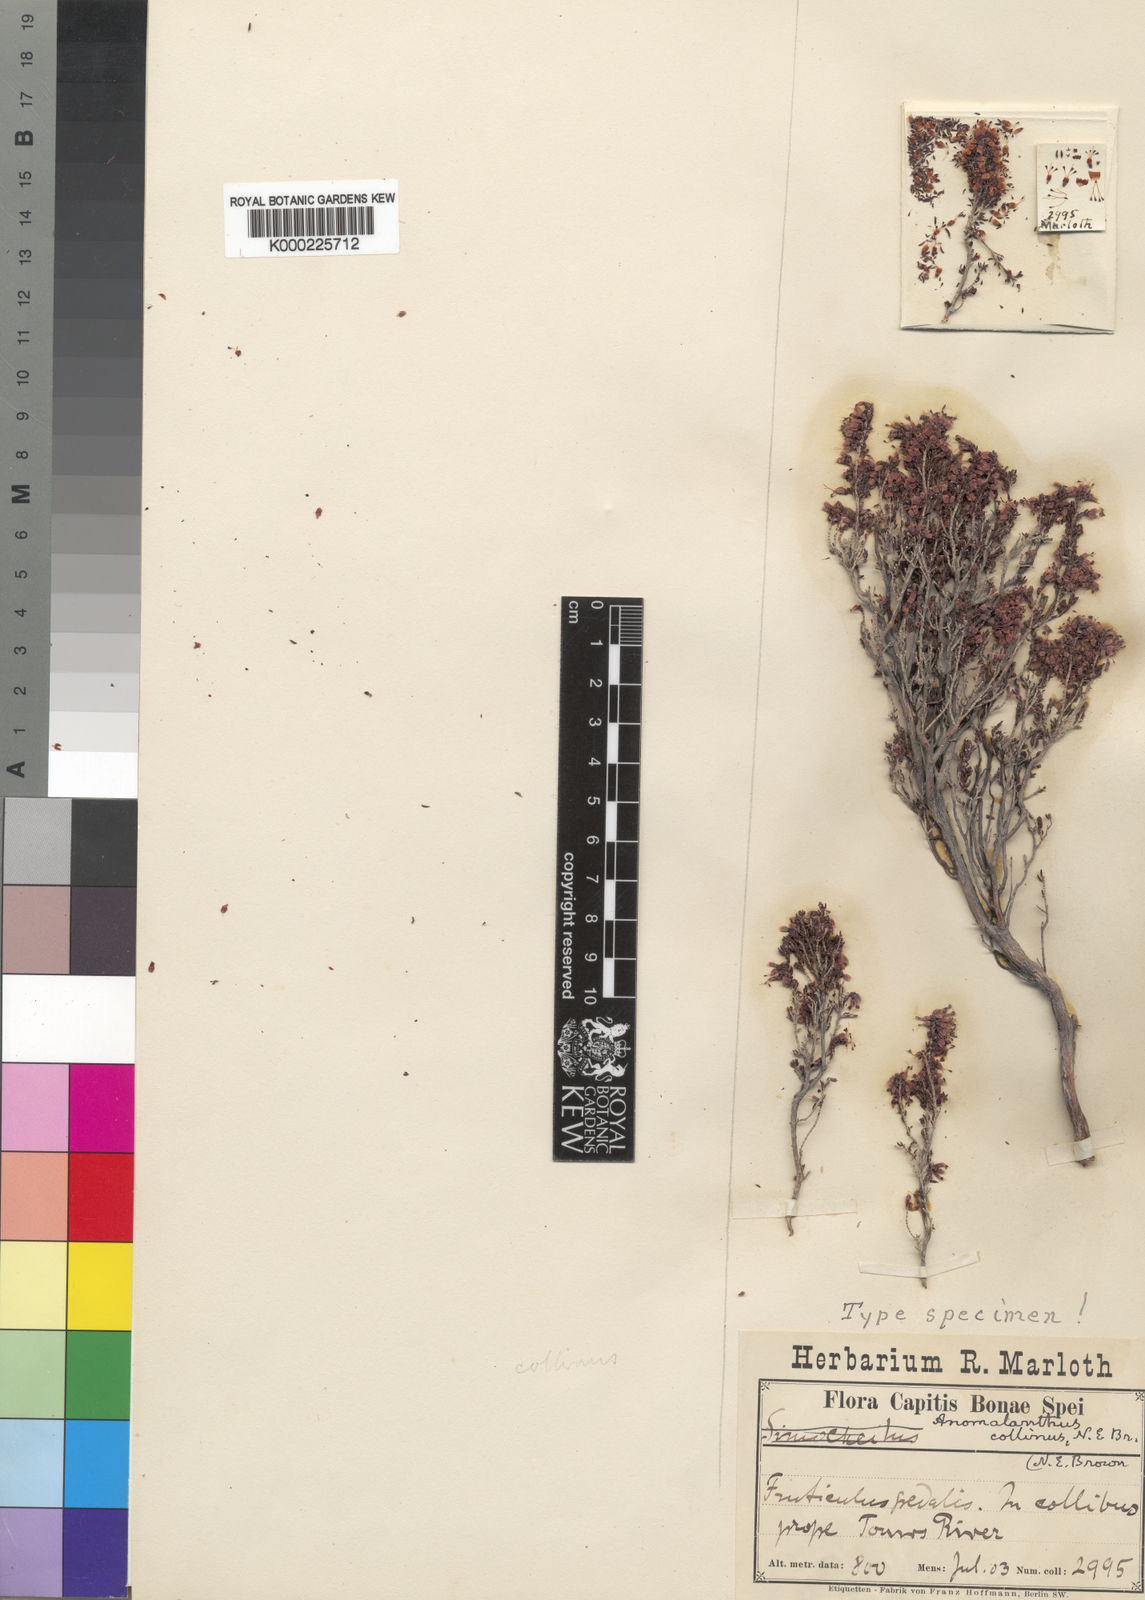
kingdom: Plantae
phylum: Tracheophyta
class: Magnoliopsida
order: Ericales
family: Ericaceae
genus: Erica
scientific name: Erica anguliger
